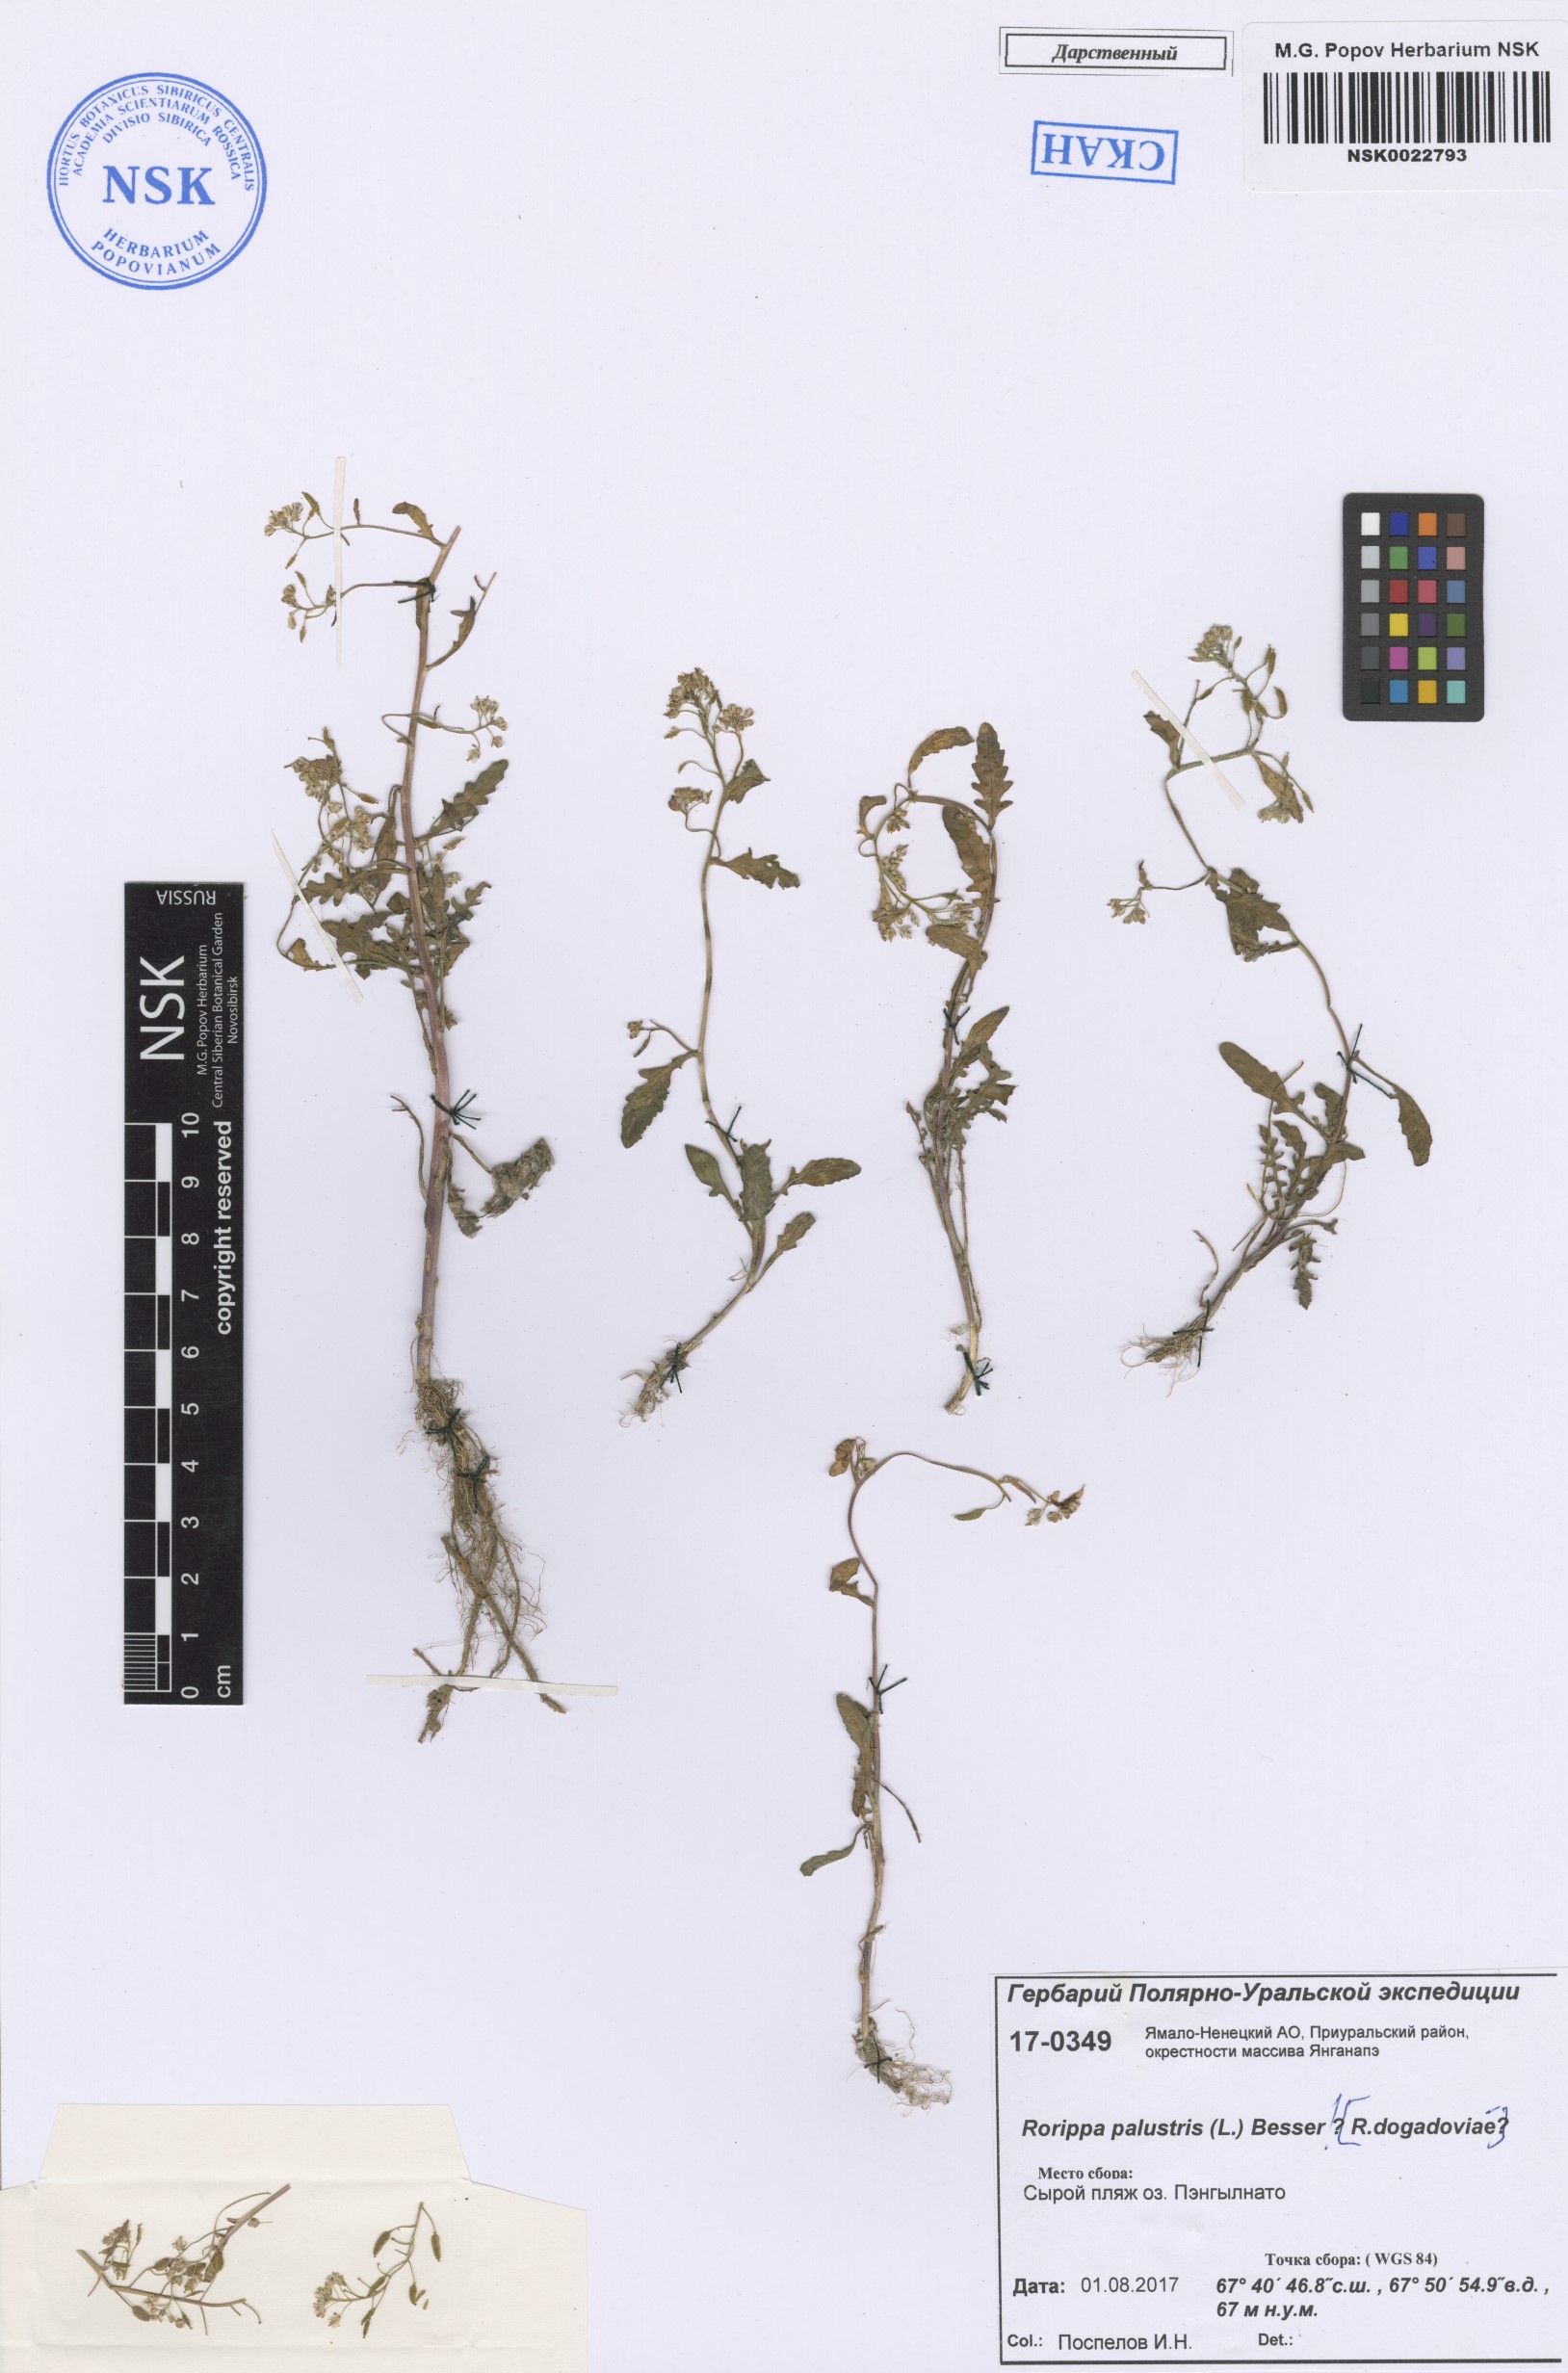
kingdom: Plantae
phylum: Tracheophyta
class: Magnoliopsida
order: Brassicales
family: Brassicaceae
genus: Rorippa
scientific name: Rorippa palustris
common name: Marsh yellow-cress
